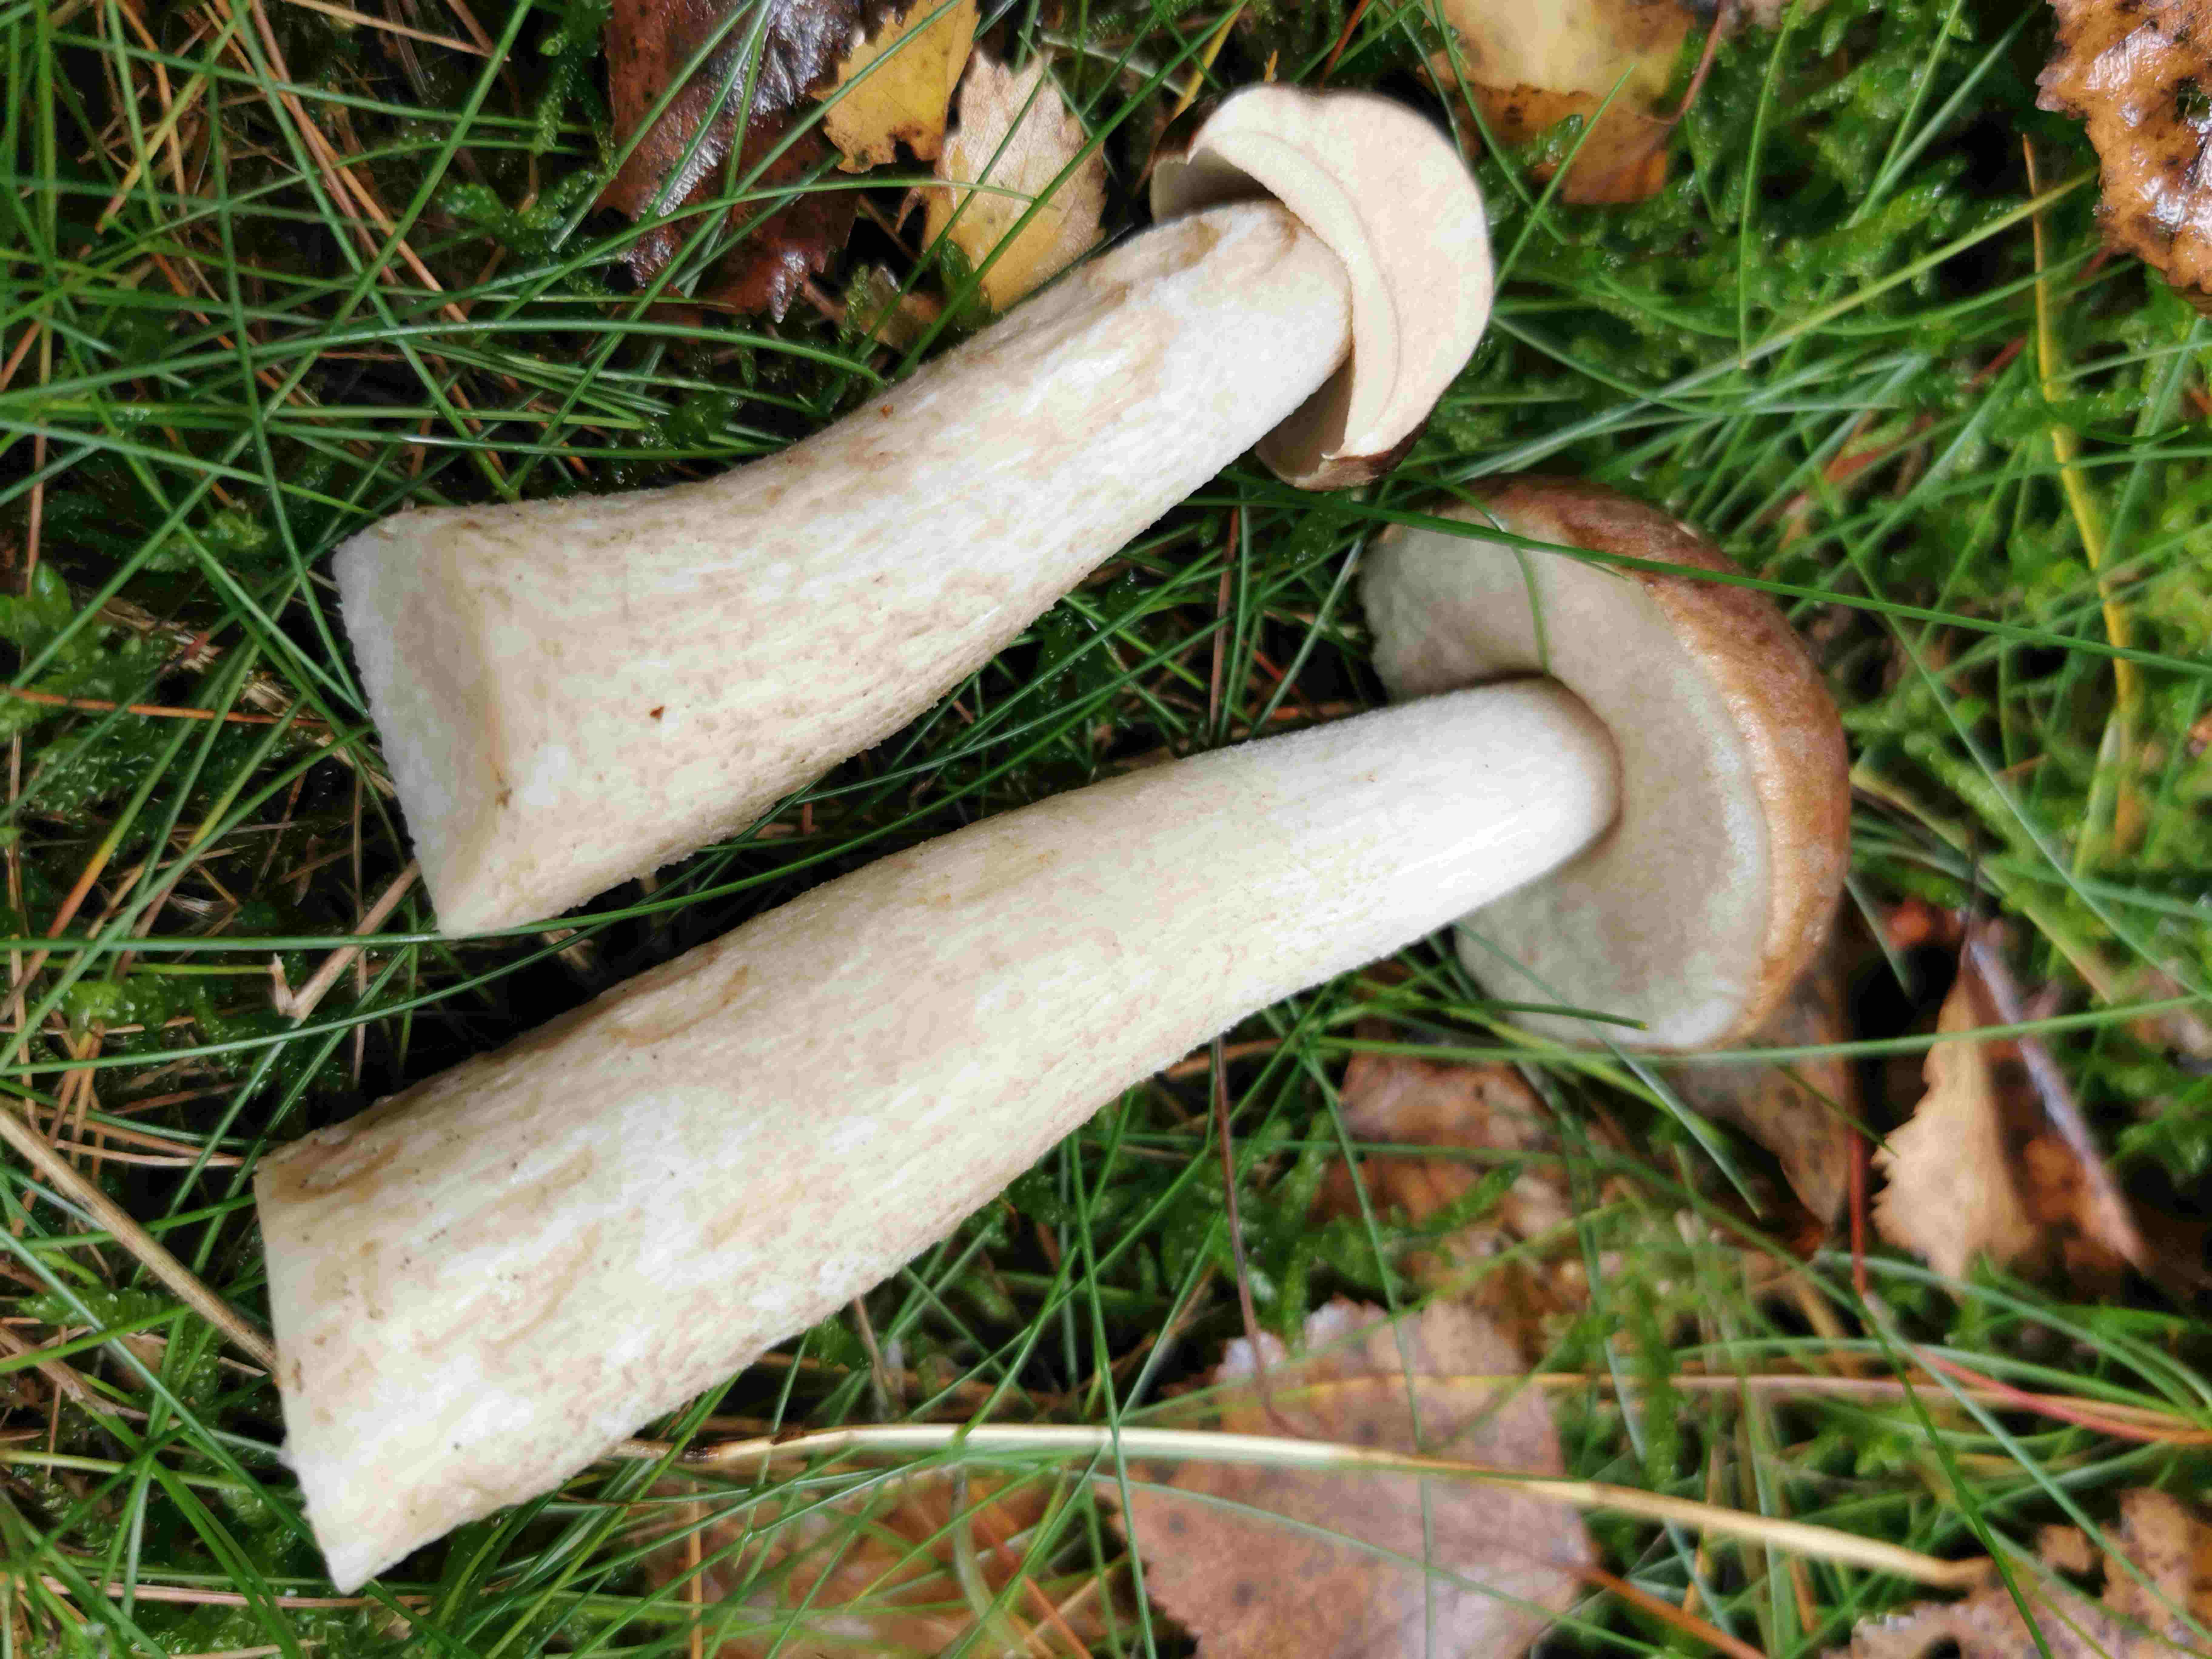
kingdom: Fungi
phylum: Basidiomycota
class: Agaricomycetes
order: Boletales
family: Boletaceae
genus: Leccinum
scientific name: Leccinum
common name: skælrørhat
